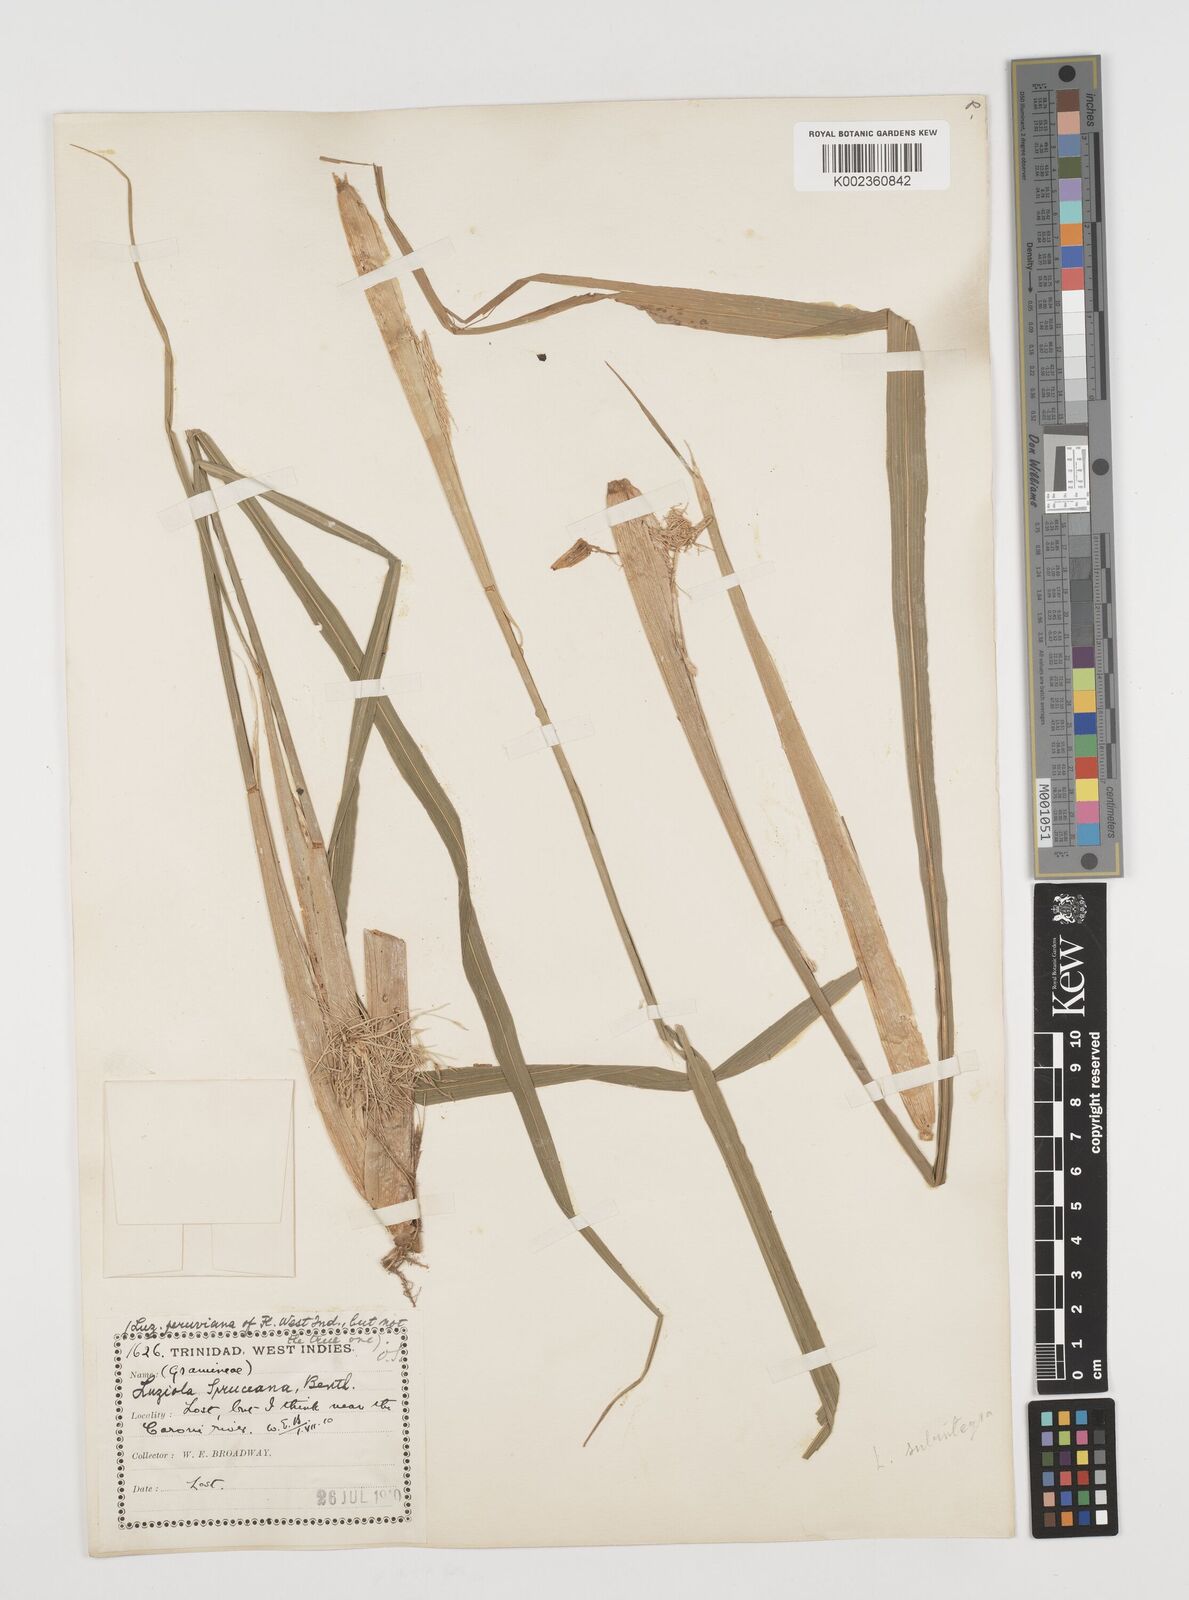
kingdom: Plantae
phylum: Tracheophyta
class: Liliopsida
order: Poales
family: Poaceae
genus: Luziola
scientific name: Luziola subintegra
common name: Large watergrass
